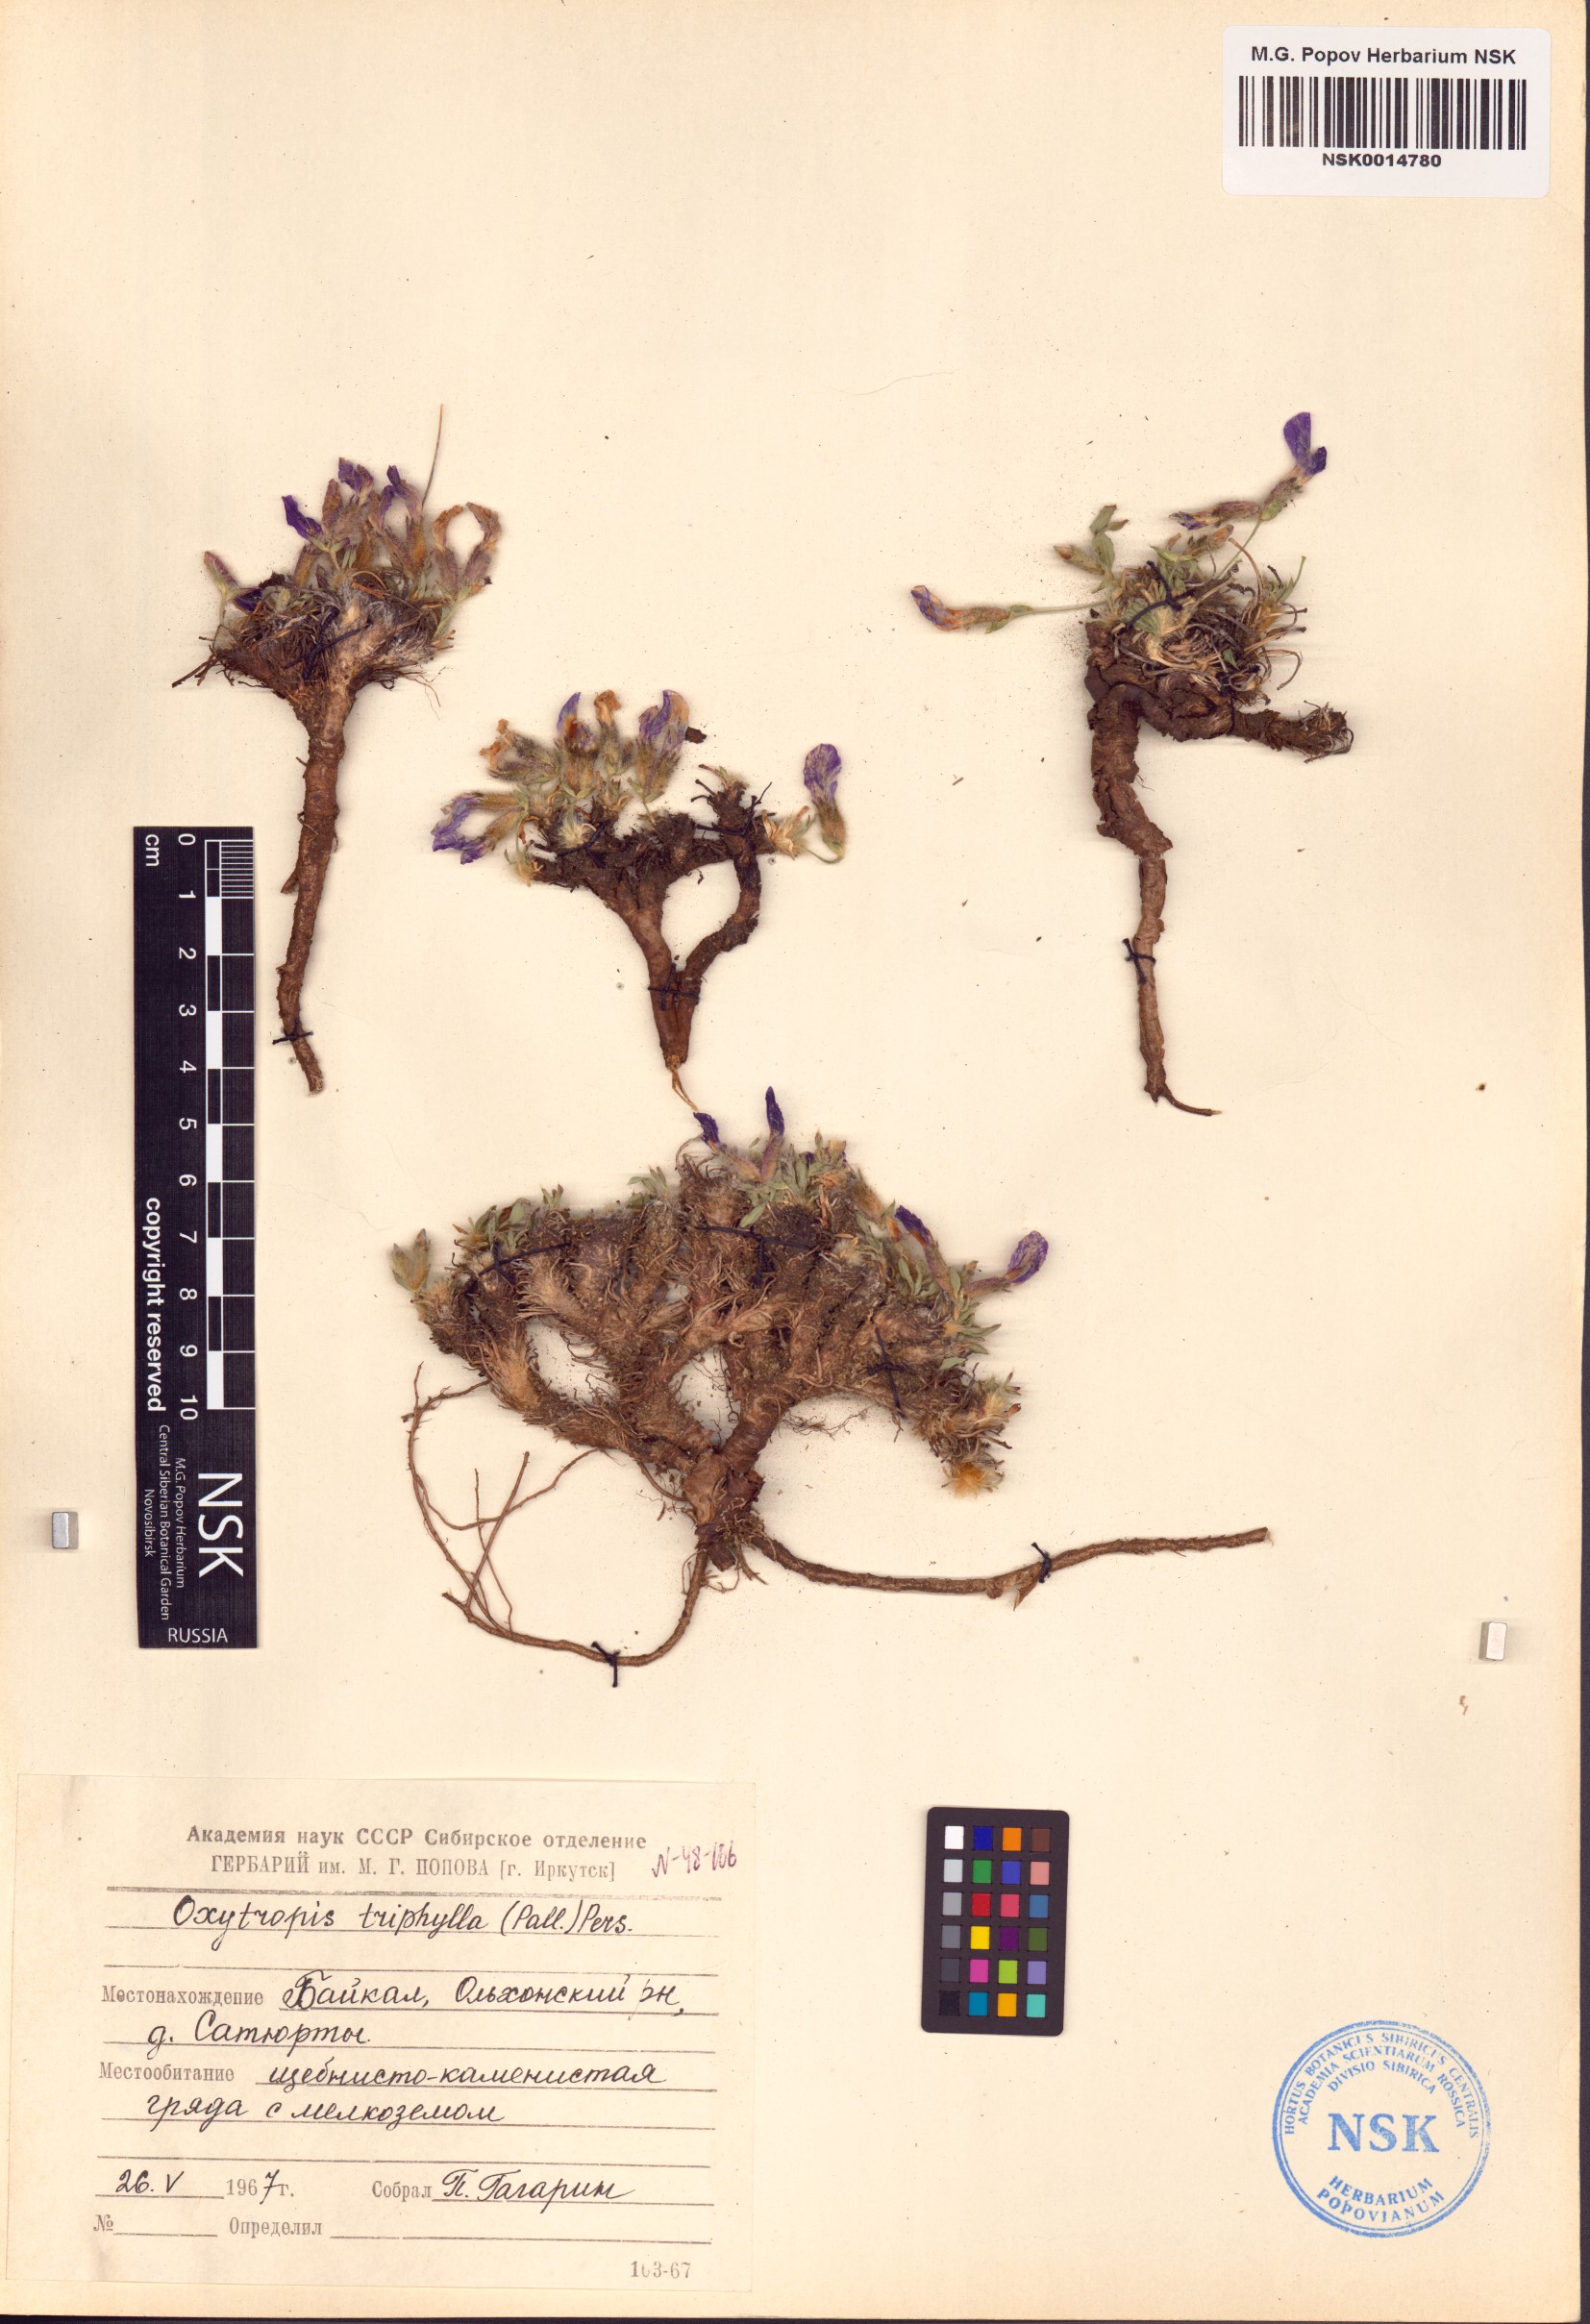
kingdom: Plantae
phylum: Tracheophyta
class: Magnoliopsida
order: Fabales
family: Fabaceae
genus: Oxytropis
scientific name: Oxytropis triphylla
